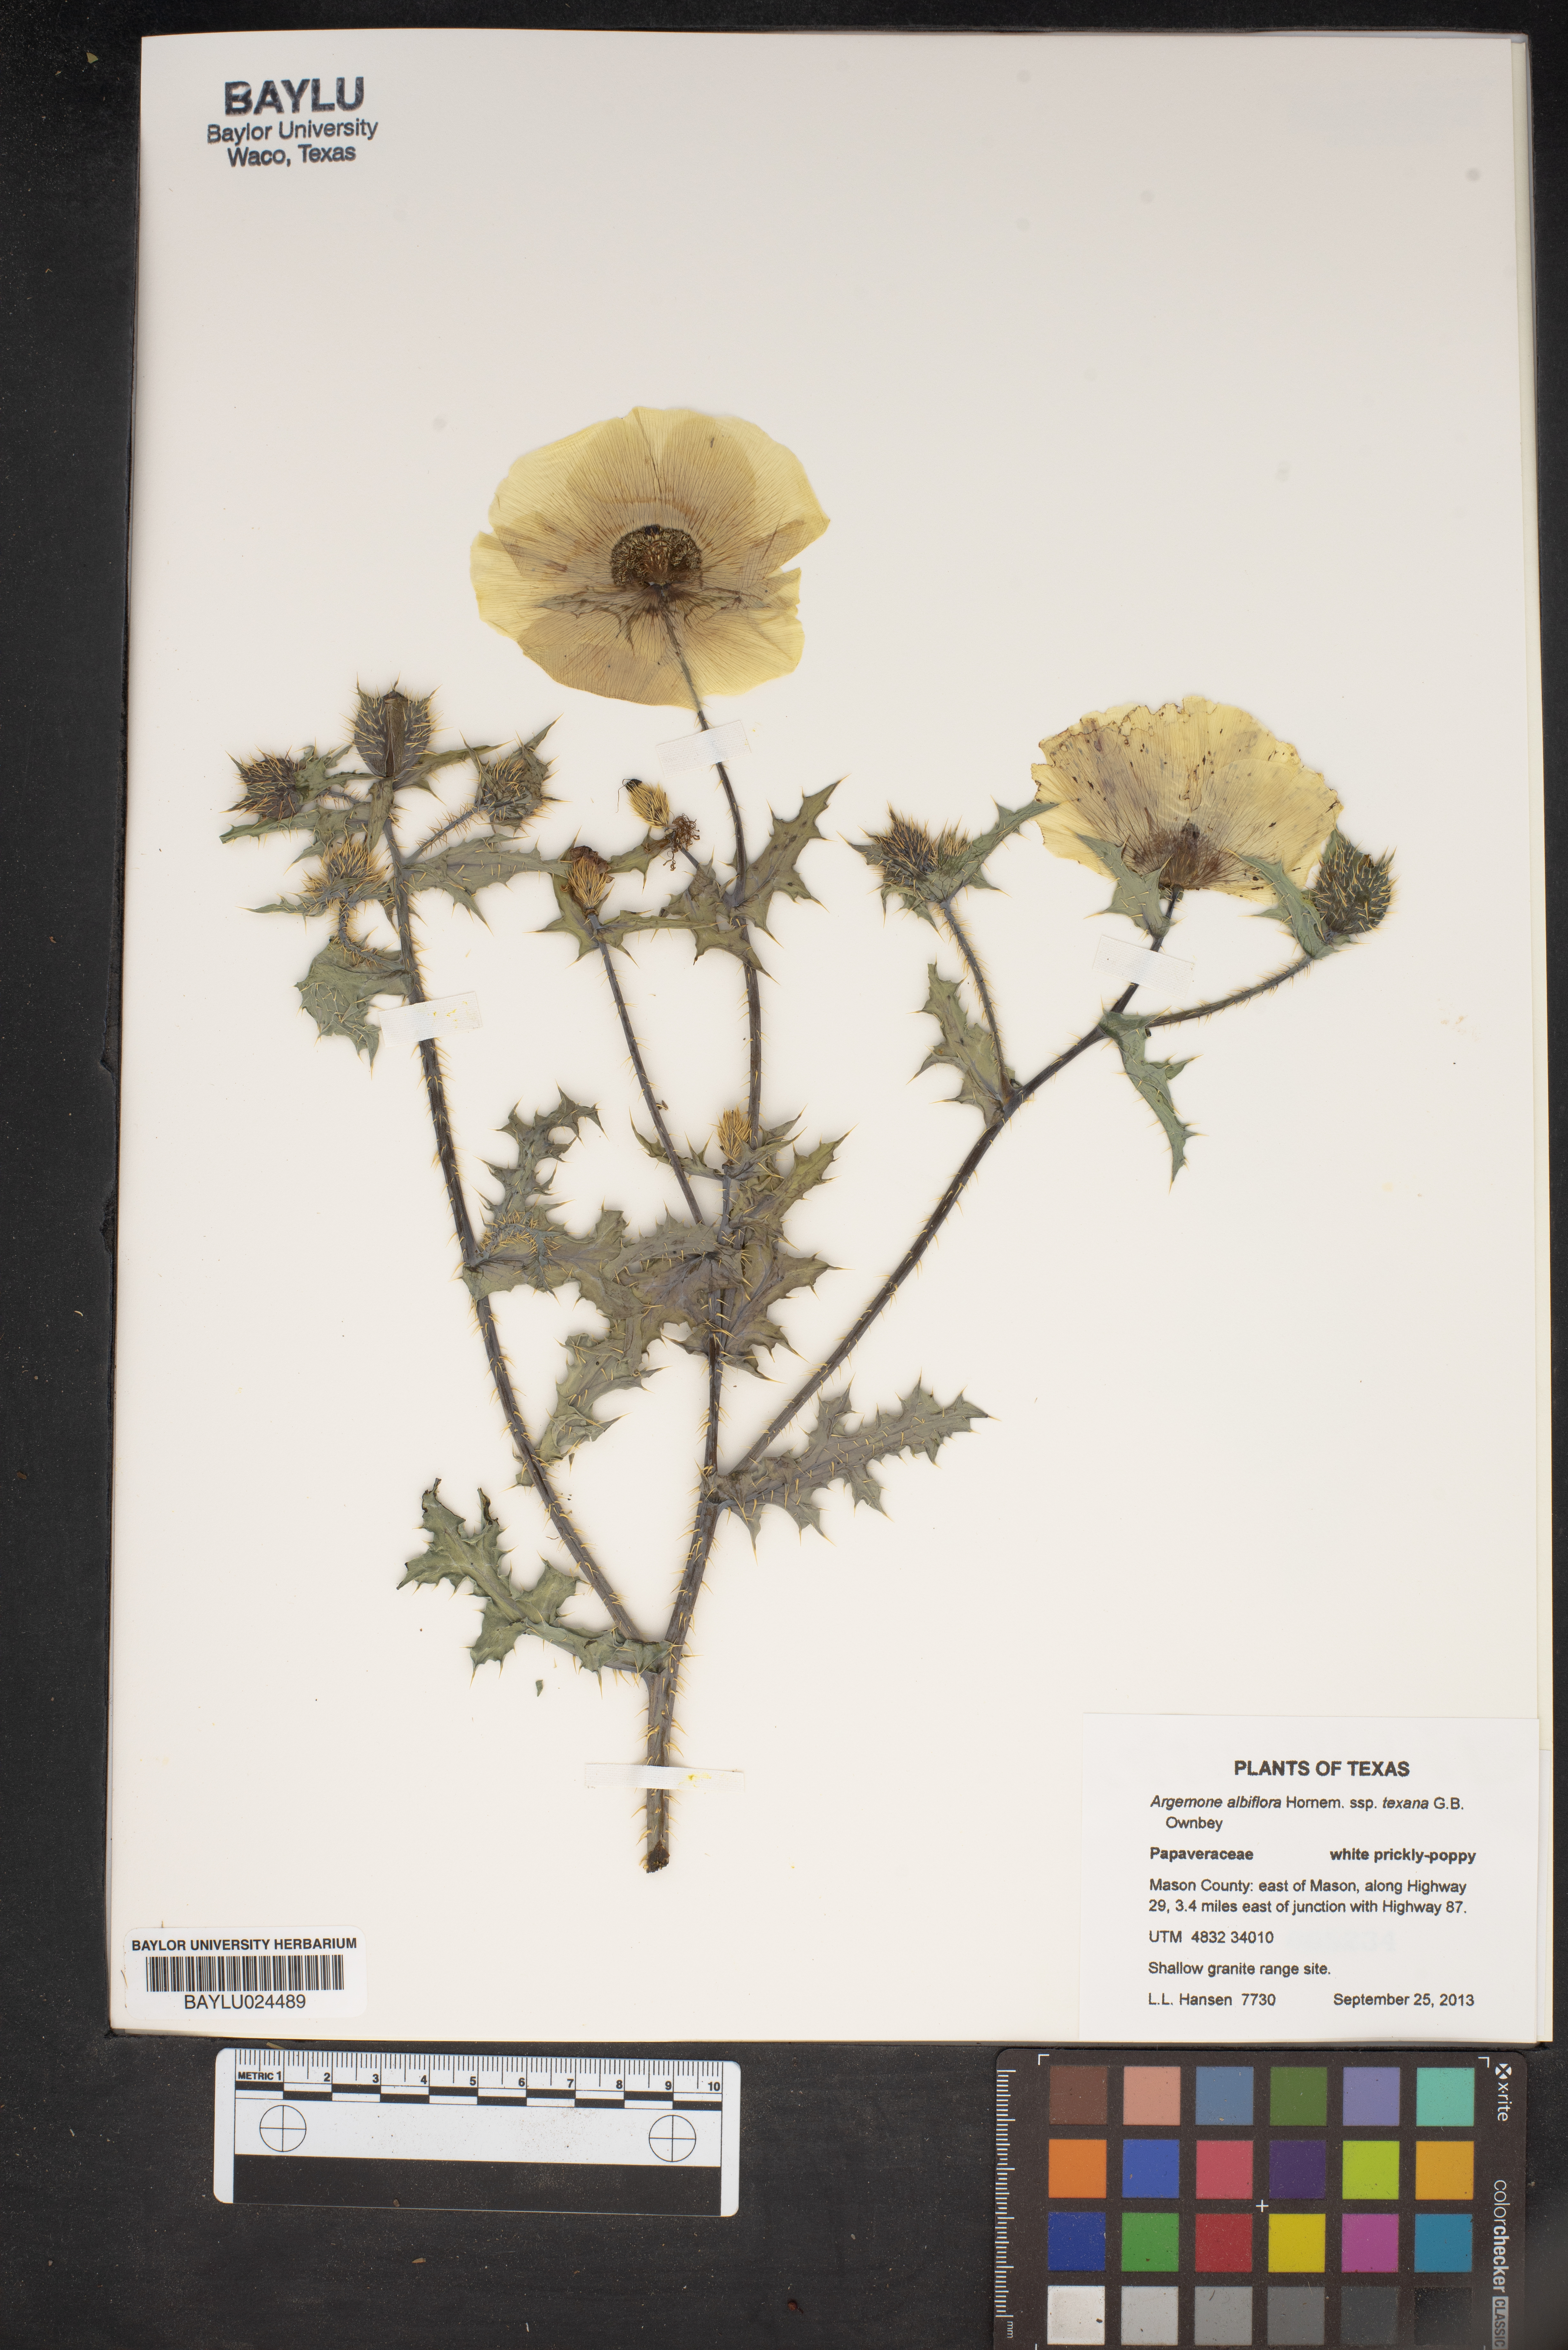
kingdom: Plantae
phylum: Tracheophyta
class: Magnoliopsida
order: Ranunculales
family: Papaveraceae
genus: Argemone
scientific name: Argemone albiflora
